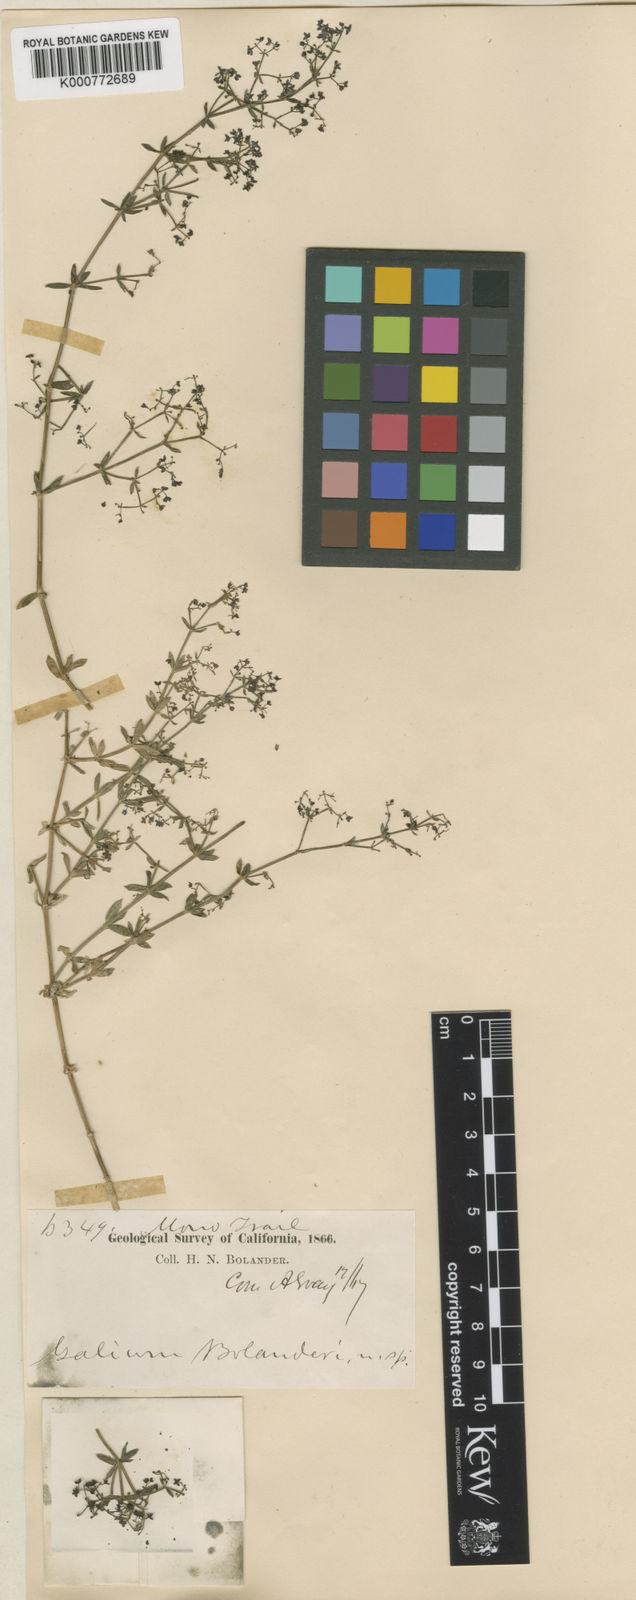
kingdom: Plantae
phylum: Tracheophyta
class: Magnoliopsida
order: Gentianales
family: Rubiaceae
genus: Galium
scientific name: Galium bolanderi
